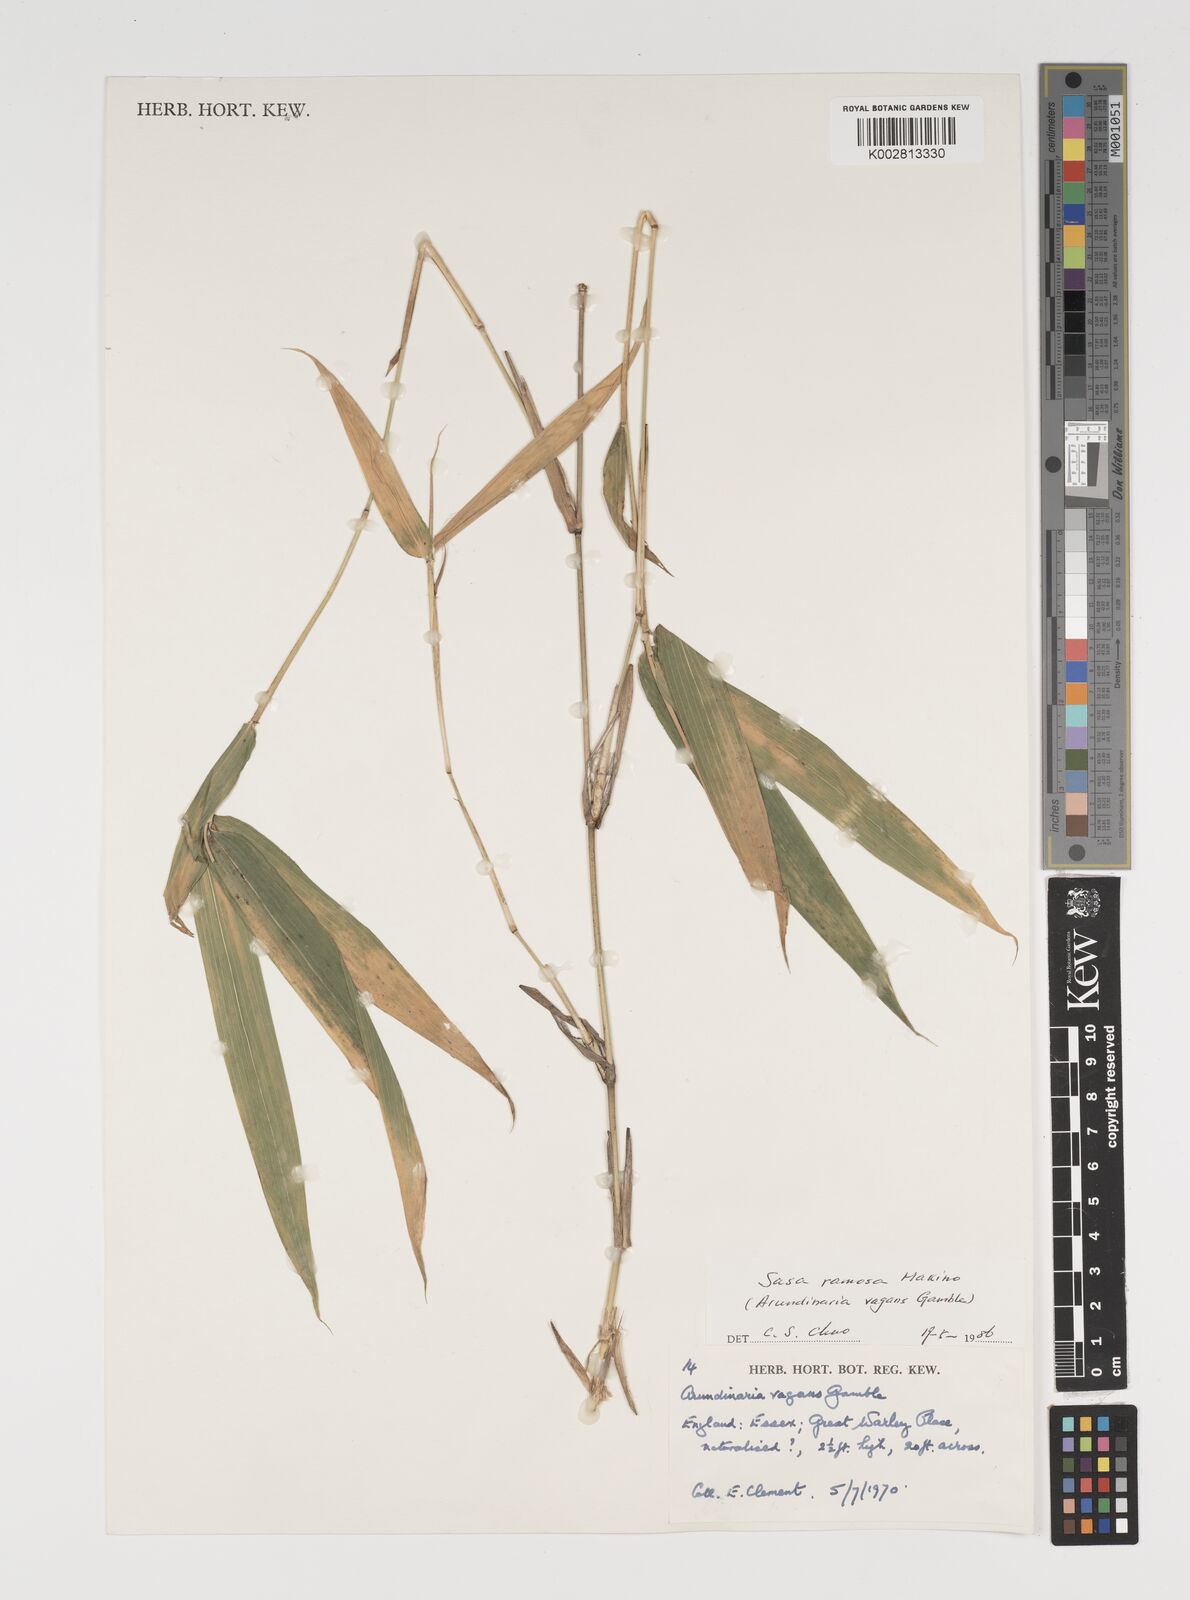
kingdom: Plantae
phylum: Tracheophyta
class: Liliopsida
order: Poales
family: Poaceae
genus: Sasaella
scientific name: Sasaella ramosa
